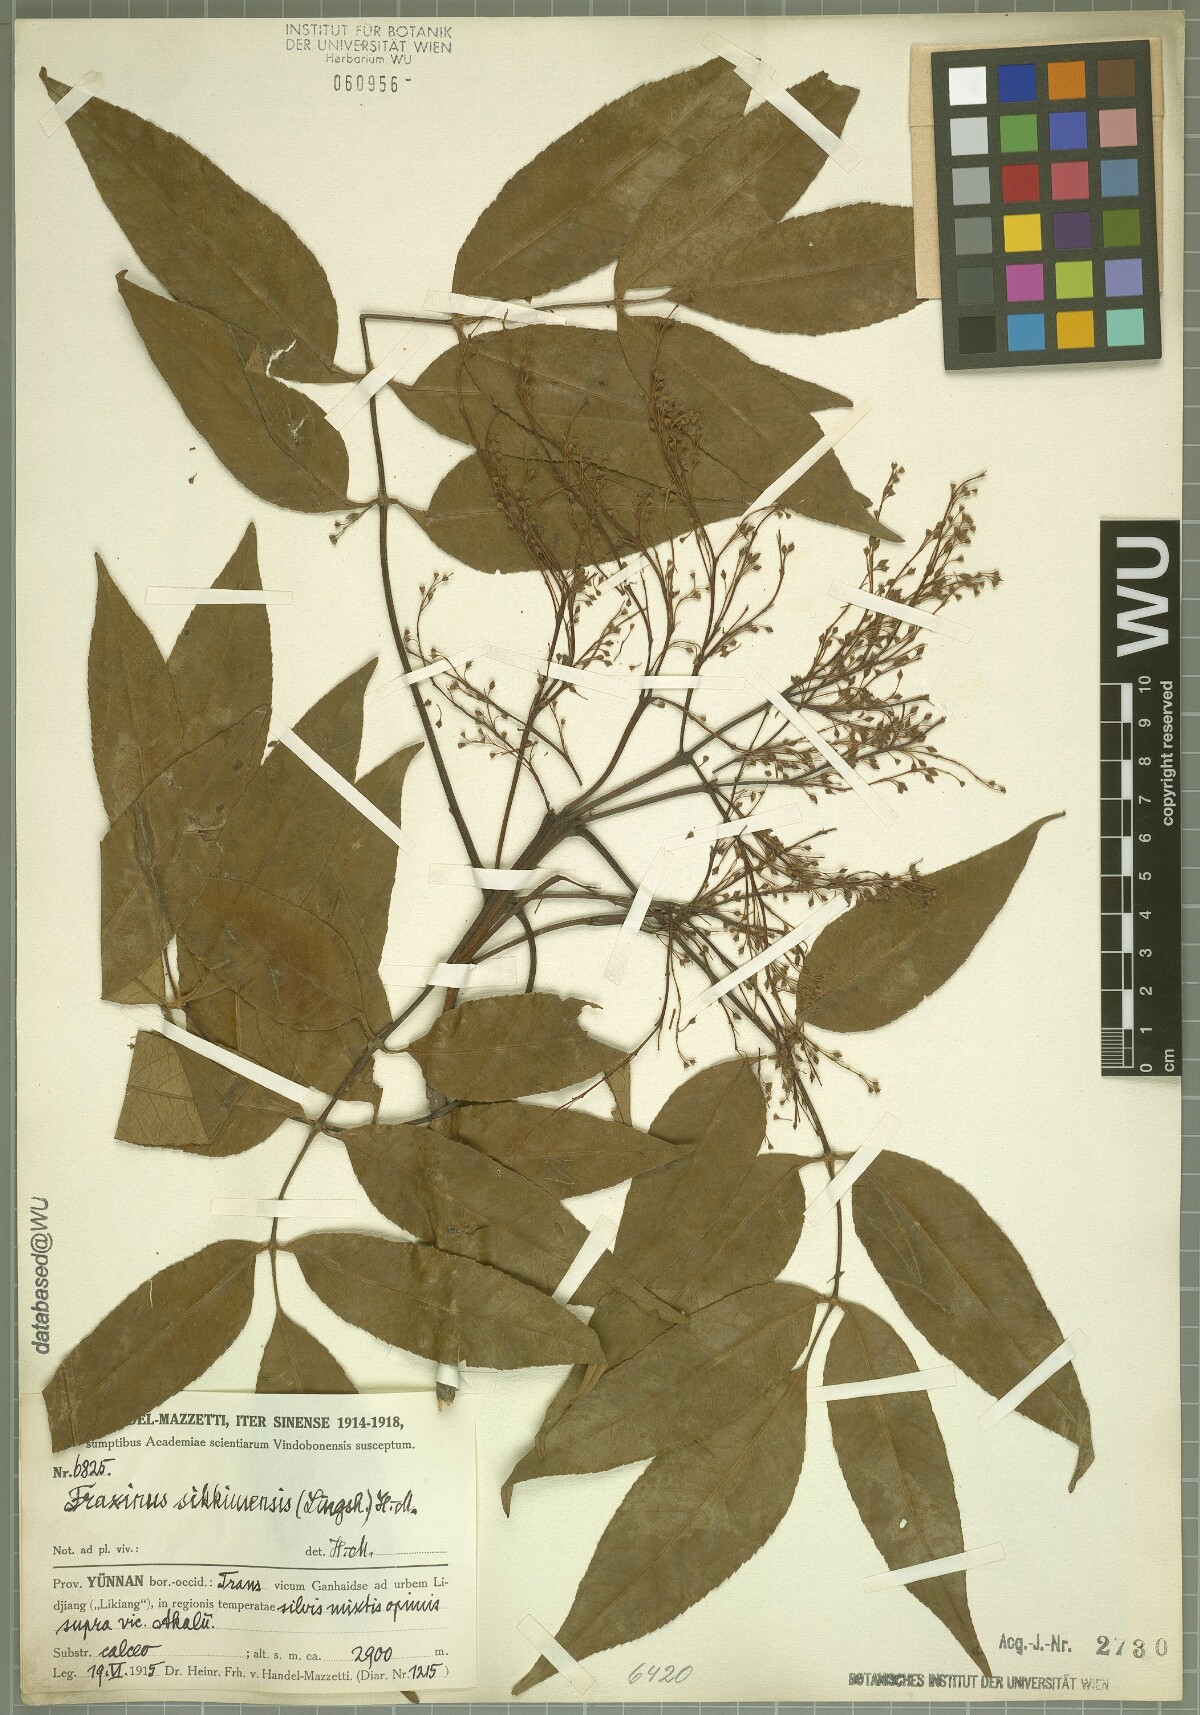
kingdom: Plantae
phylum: Tracheophyta
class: Magnoliopsida
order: Lamiales
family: Oleaceae
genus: Fraxinus
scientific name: Fraxinus suaveolens
